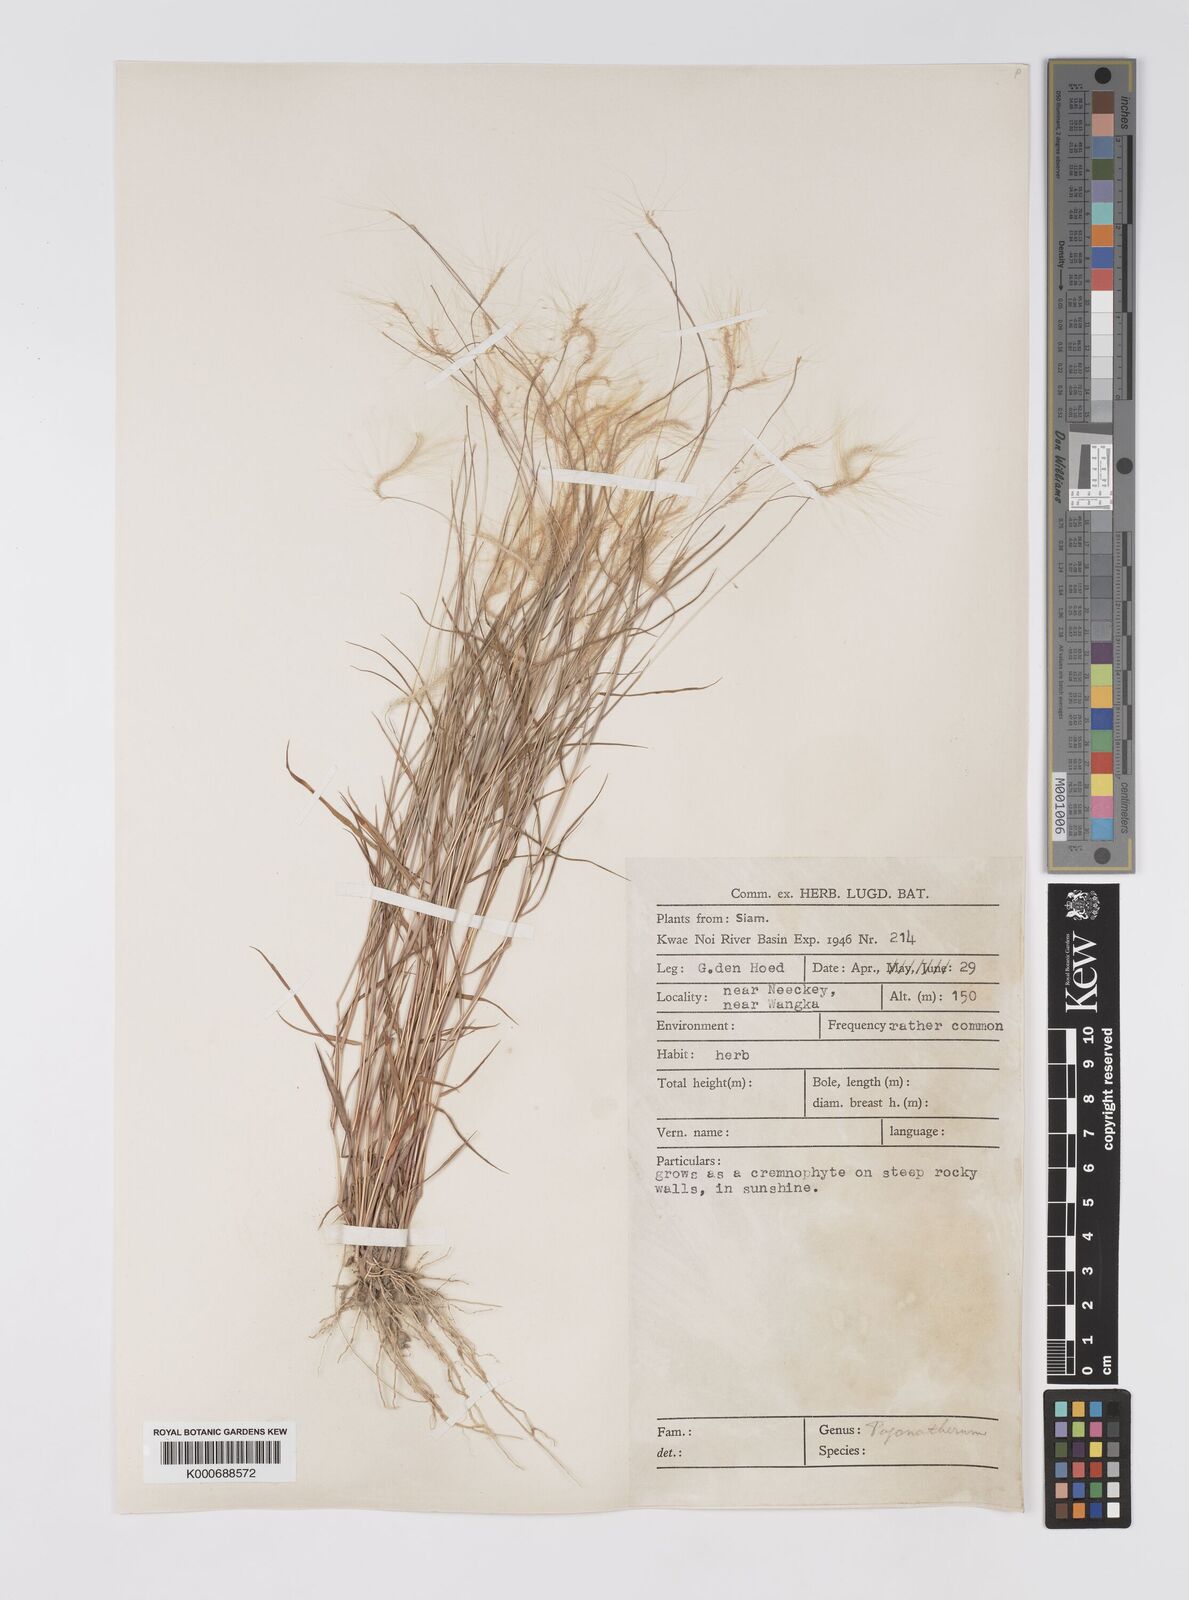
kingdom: Plantae
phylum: Tracheophyta
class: Liliopsida
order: Poales
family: Poaceae
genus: Pogonatherum
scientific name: Pogonatherum crinitum
